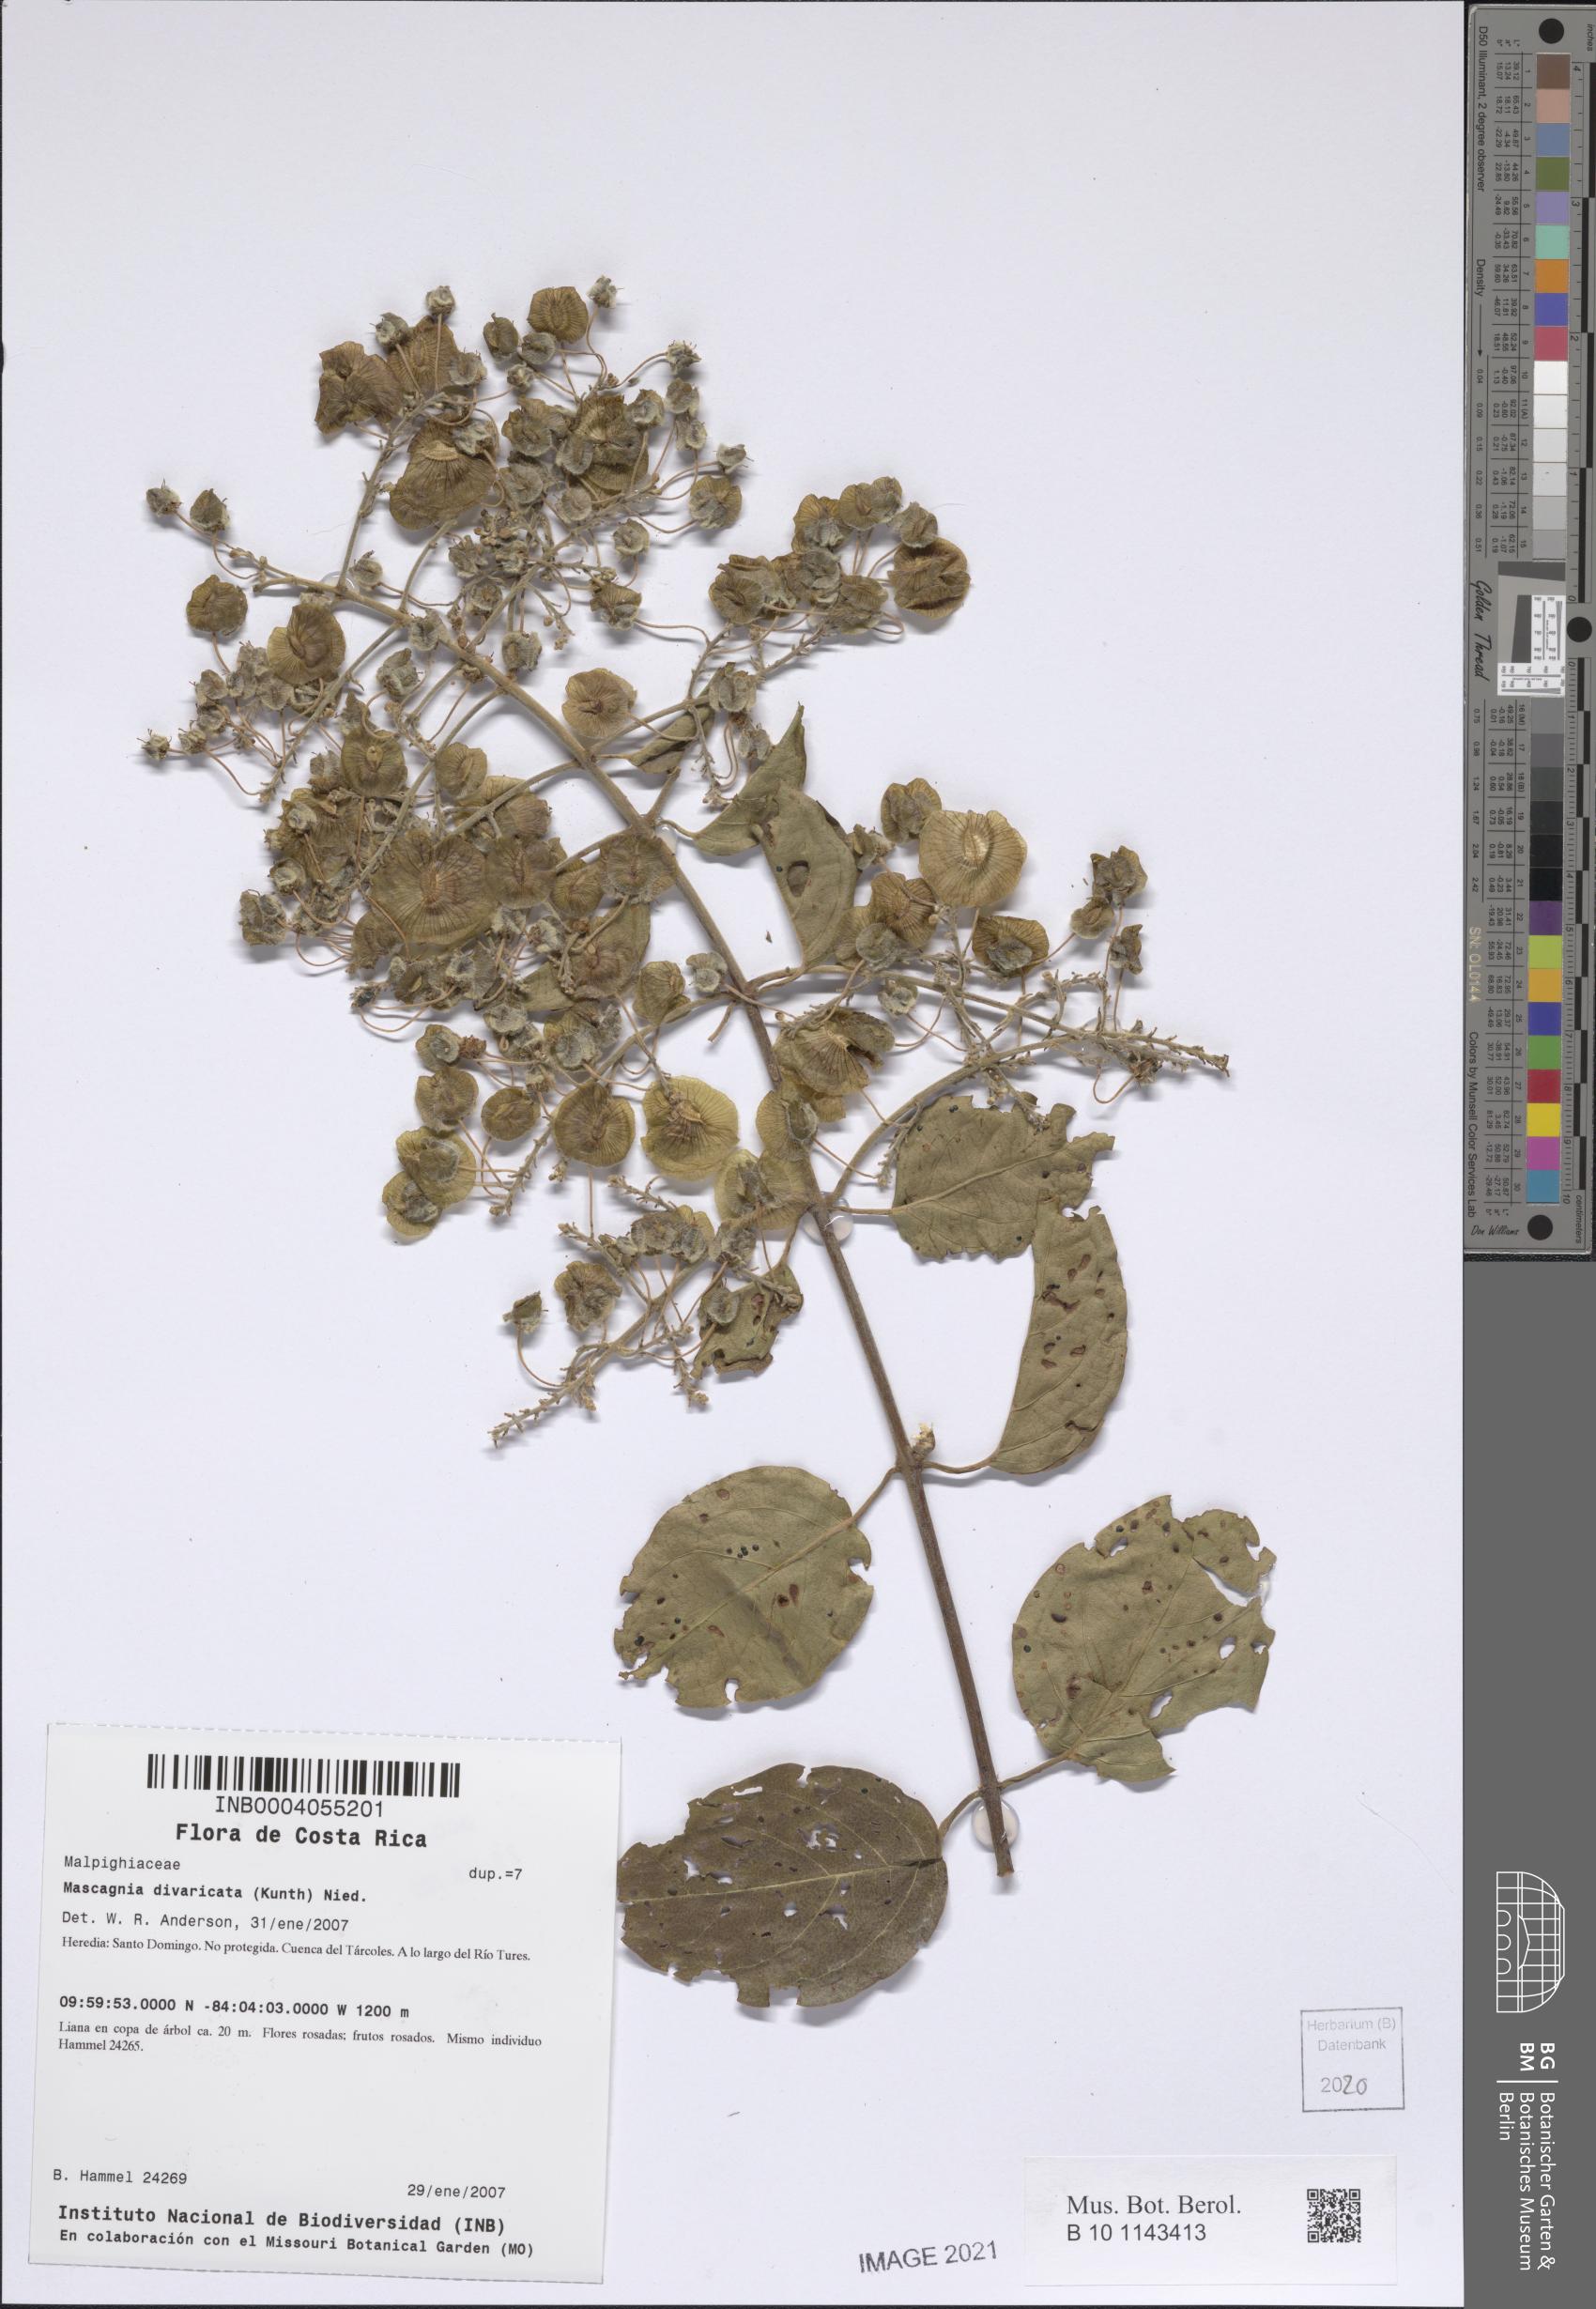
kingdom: Plantae
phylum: Tracheophyta
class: Magnoliopsida
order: Malpighiales
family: Malpighiaceae
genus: Mascagnia
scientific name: Mascagnia divaricata
